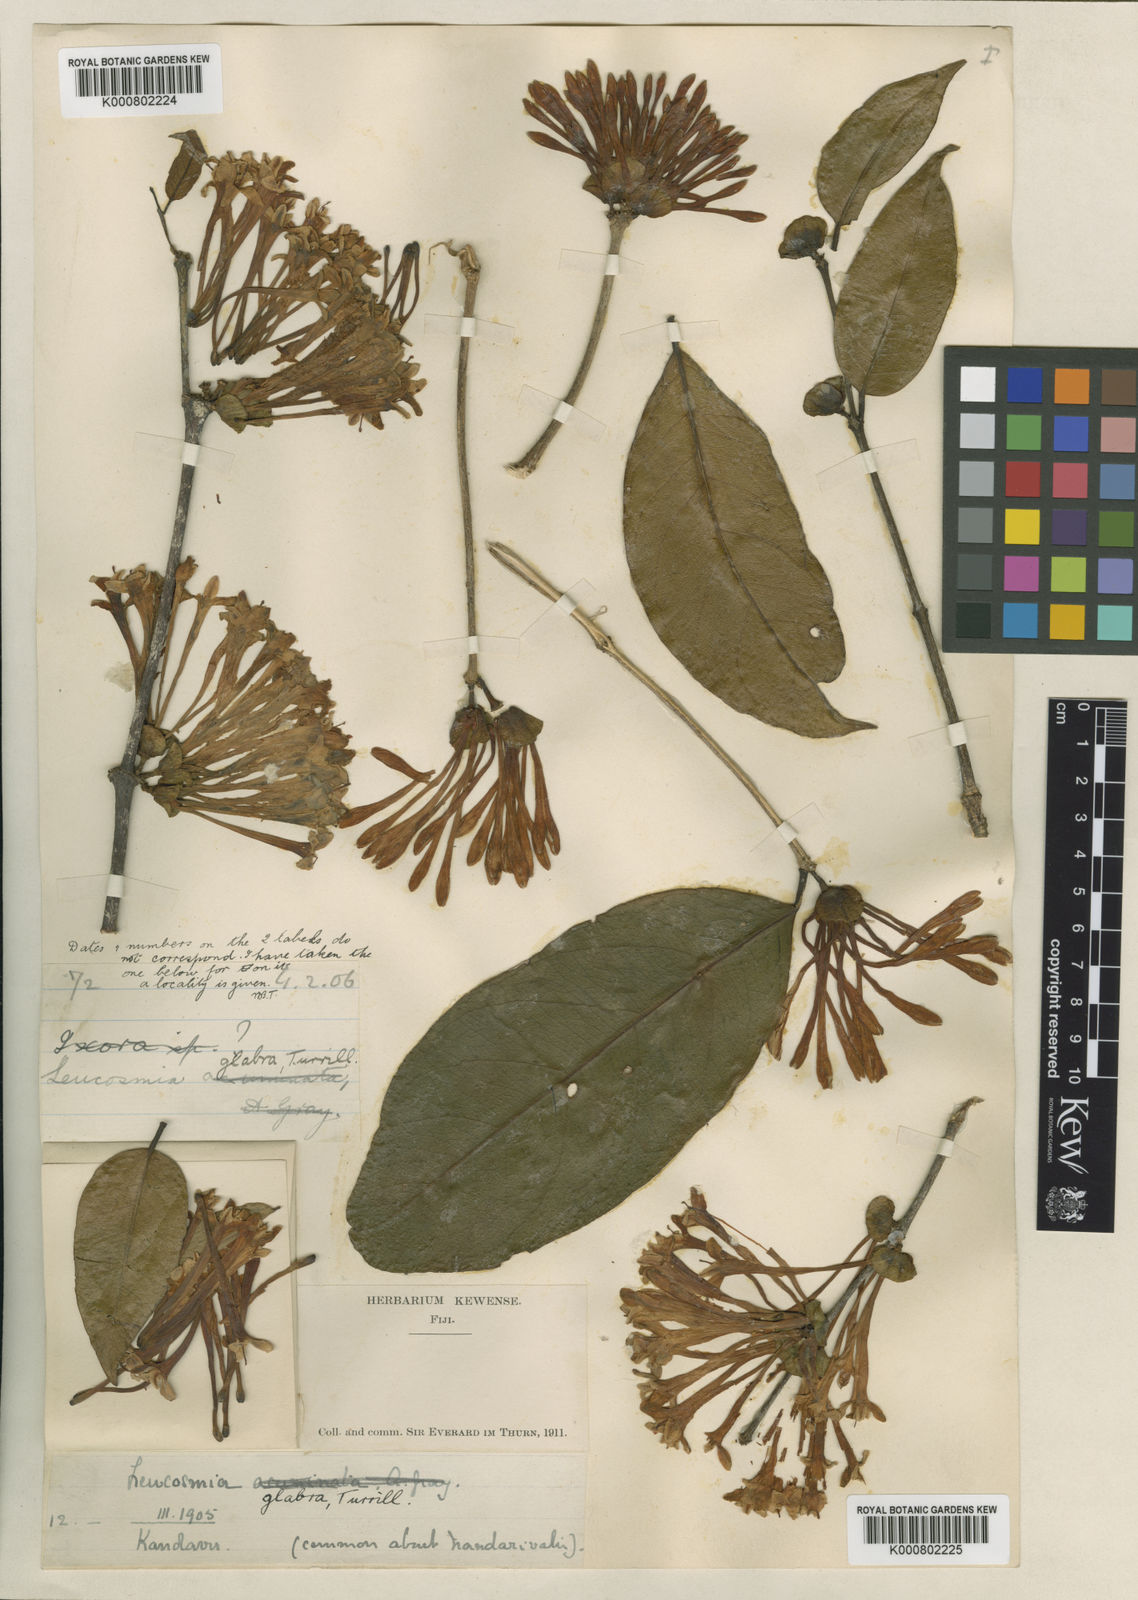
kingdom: Plantae
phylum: Tracheophyta
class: Magnoliopsida
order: Malvales
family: Thymelaeaceae
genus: Phaleria
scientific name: Phaleria glabra
